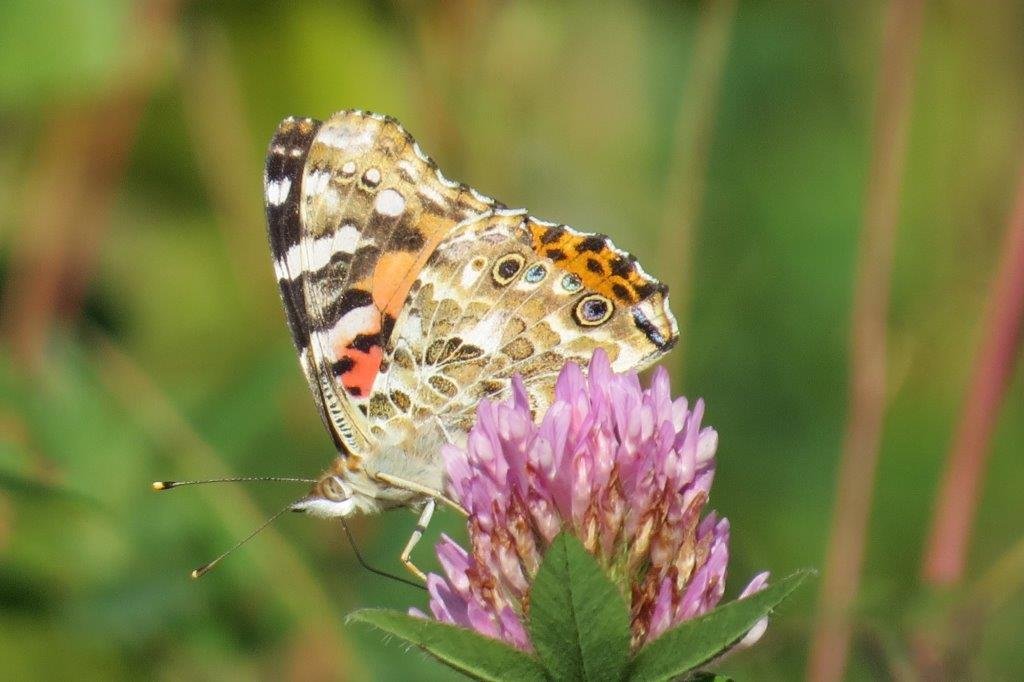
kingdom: Animalia
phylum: Arthropoda
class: Insecta
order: Lepidoptera
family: Nymphalidae
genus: Vanessa
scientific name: Vanessa cardui
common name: Painted Lady
